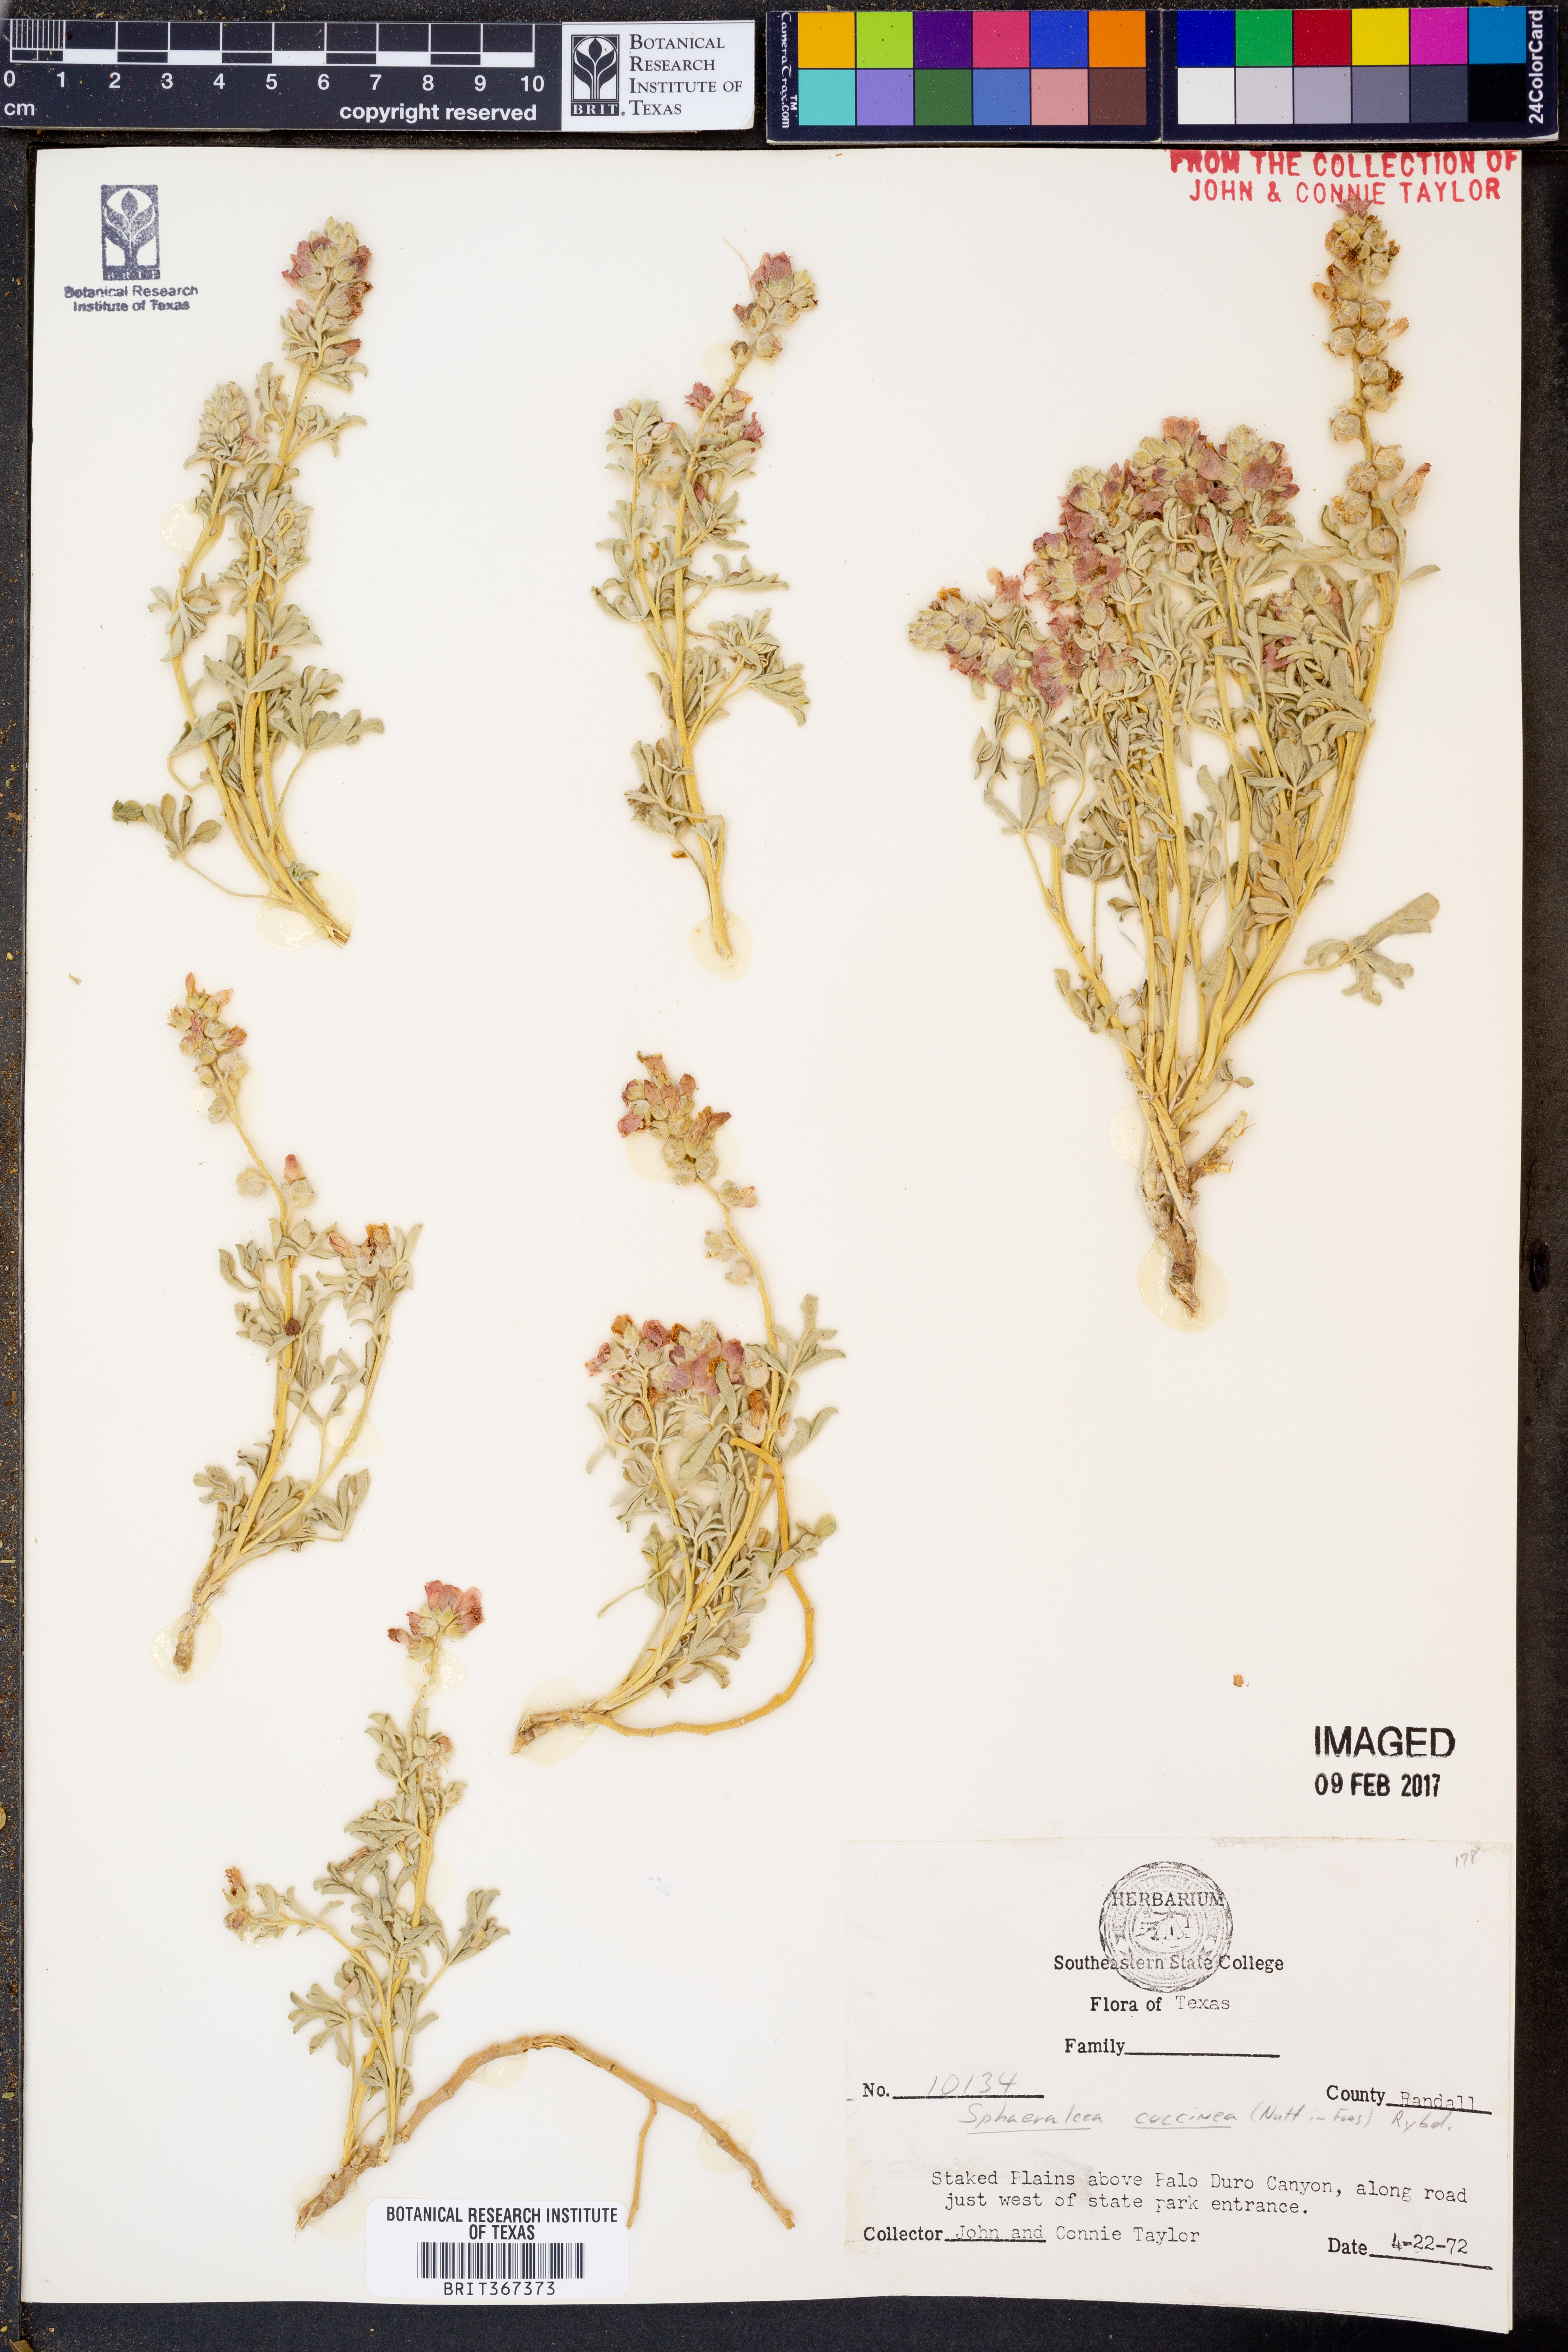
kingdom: Plantae
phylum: Tracheophyta
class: Magnoliopsida
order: Malvales
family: Malvaceae
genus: Sphaeralcea
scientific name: Sphaeralcea coccinea
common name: Moss-rose
